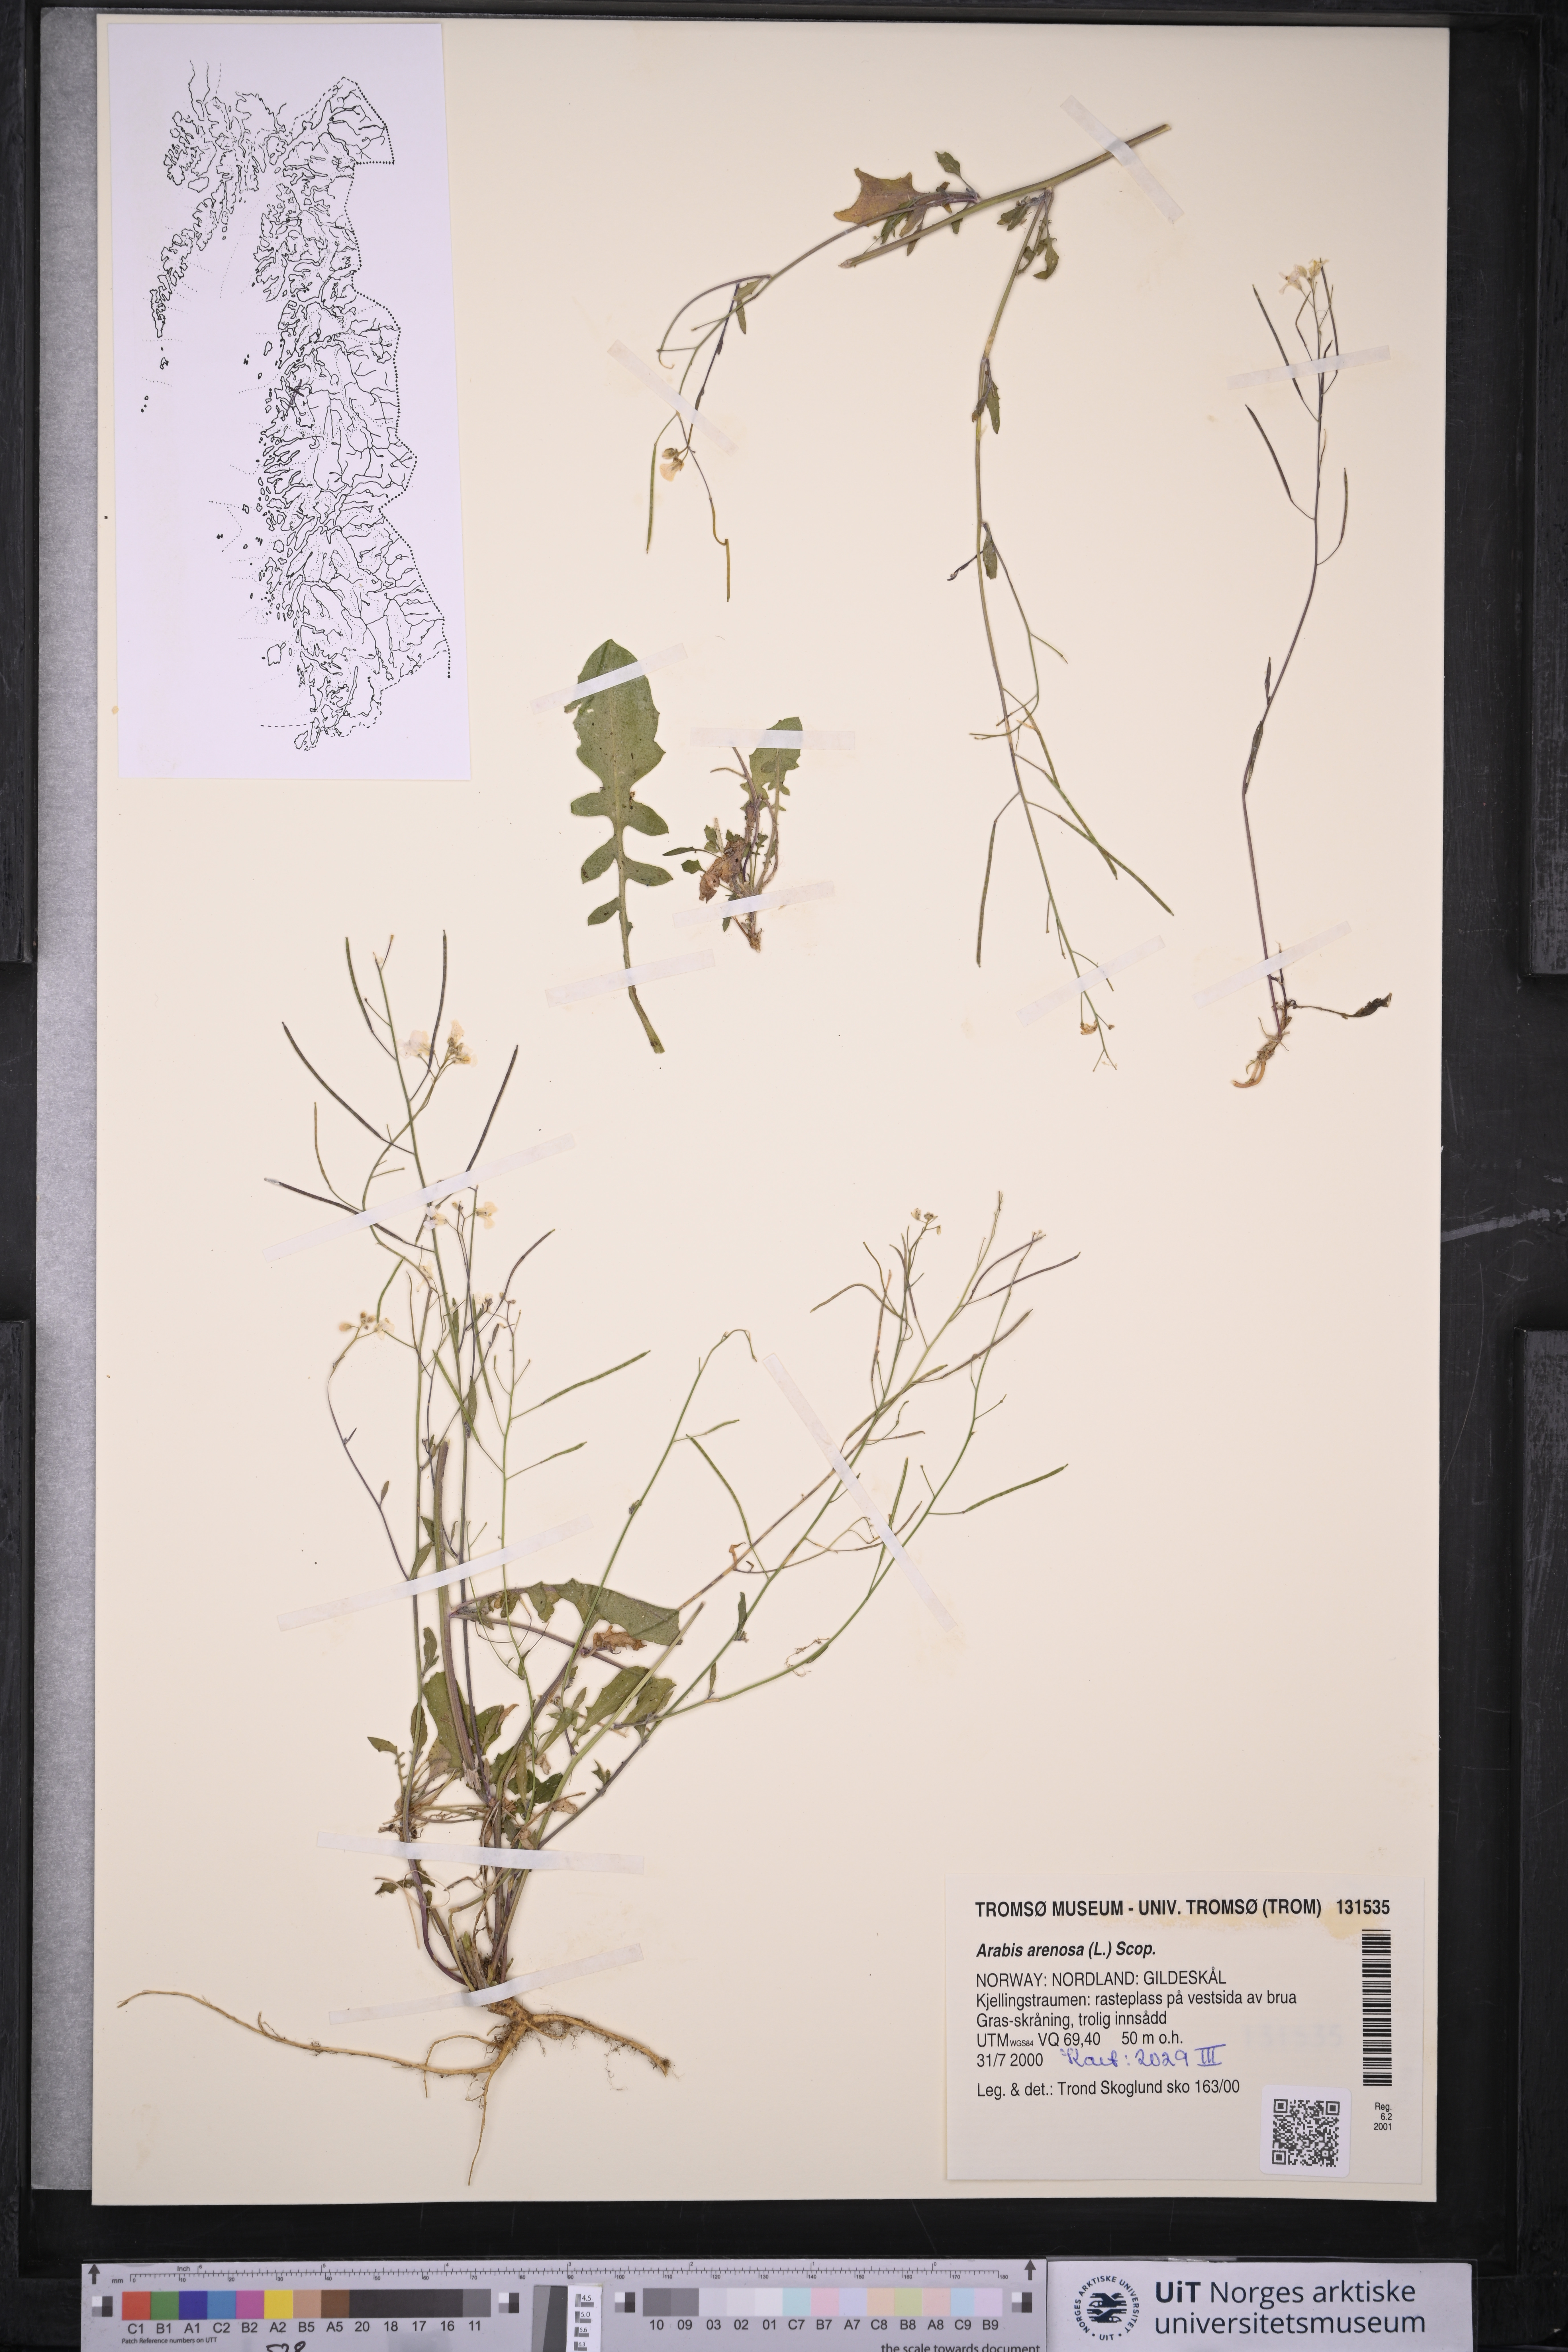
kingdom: Plantae
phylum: Tracheophyta
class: Magnoliopsida
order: Brassicales
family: Brassicaceae
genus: Arabidopsis
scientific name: Arabidopsis arenosa
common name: Sand rock-cress
